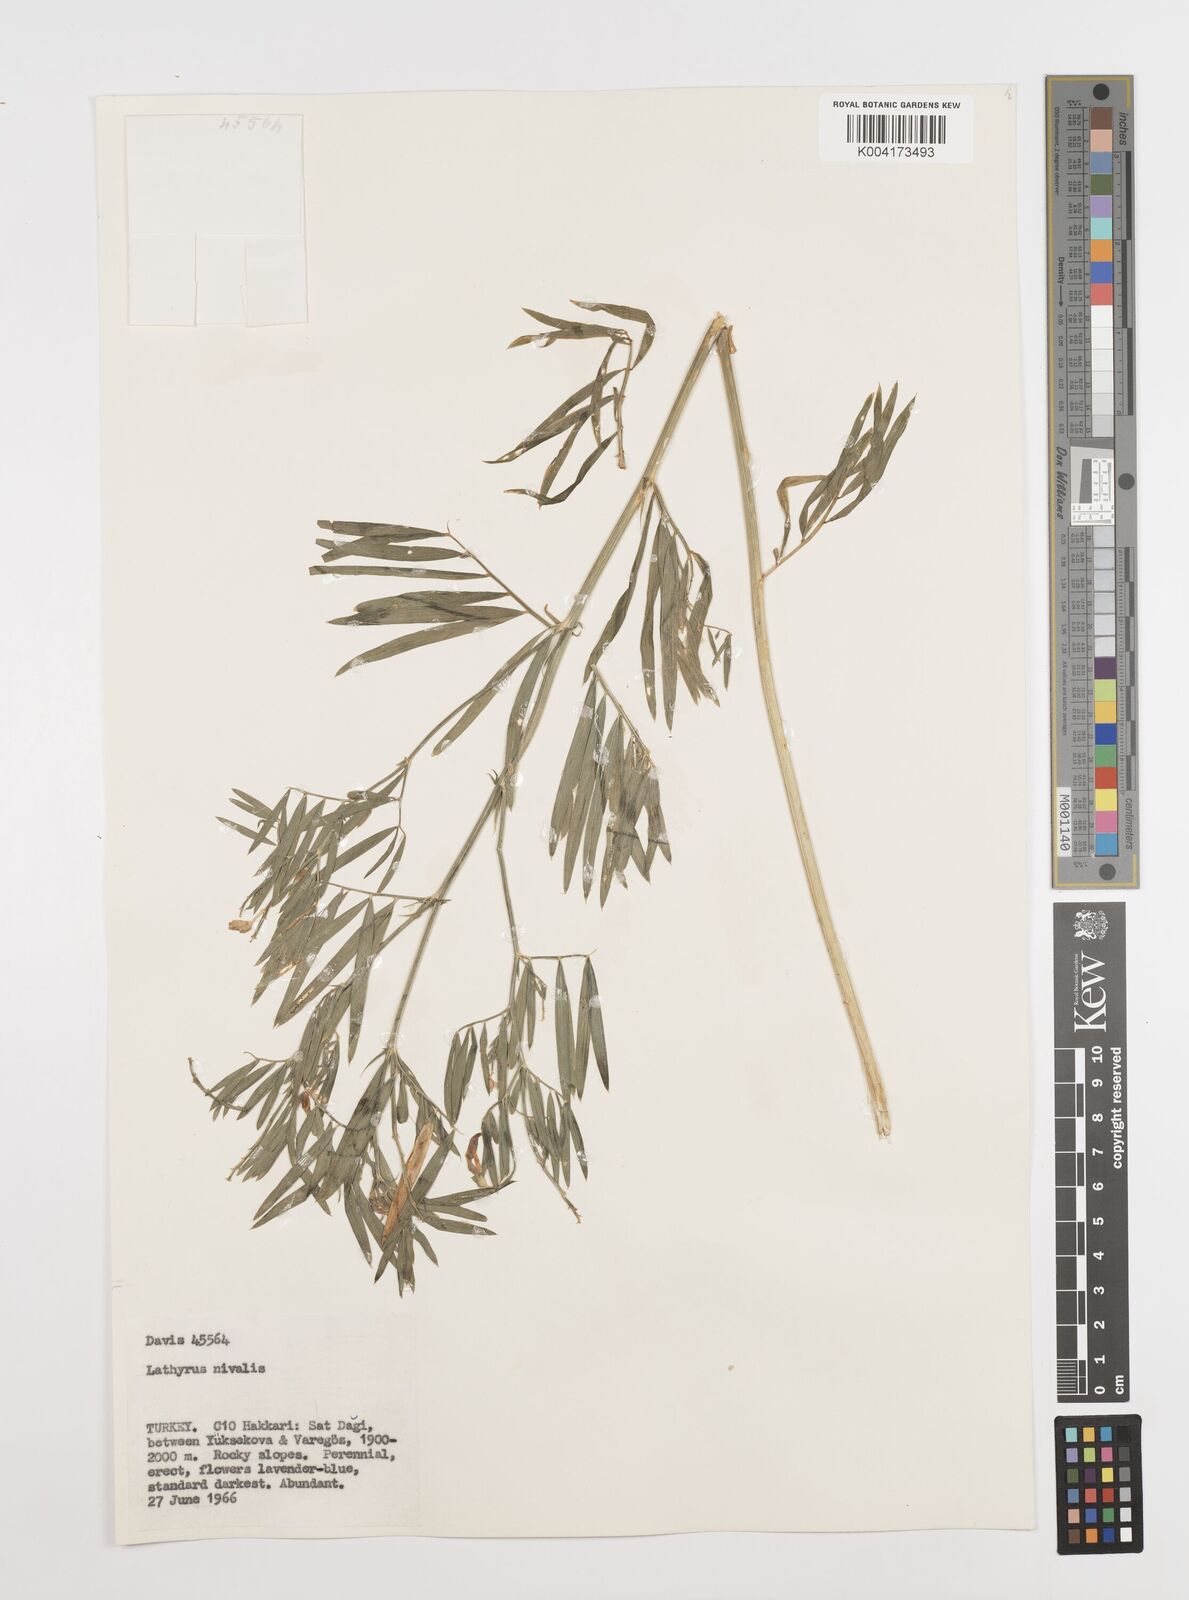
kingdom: Plantae
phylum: Tracheophyta
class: Magnoliopsida
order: Fabales
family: Fabaceae
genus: Lathyrus
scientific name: Lathyrus nivalis
